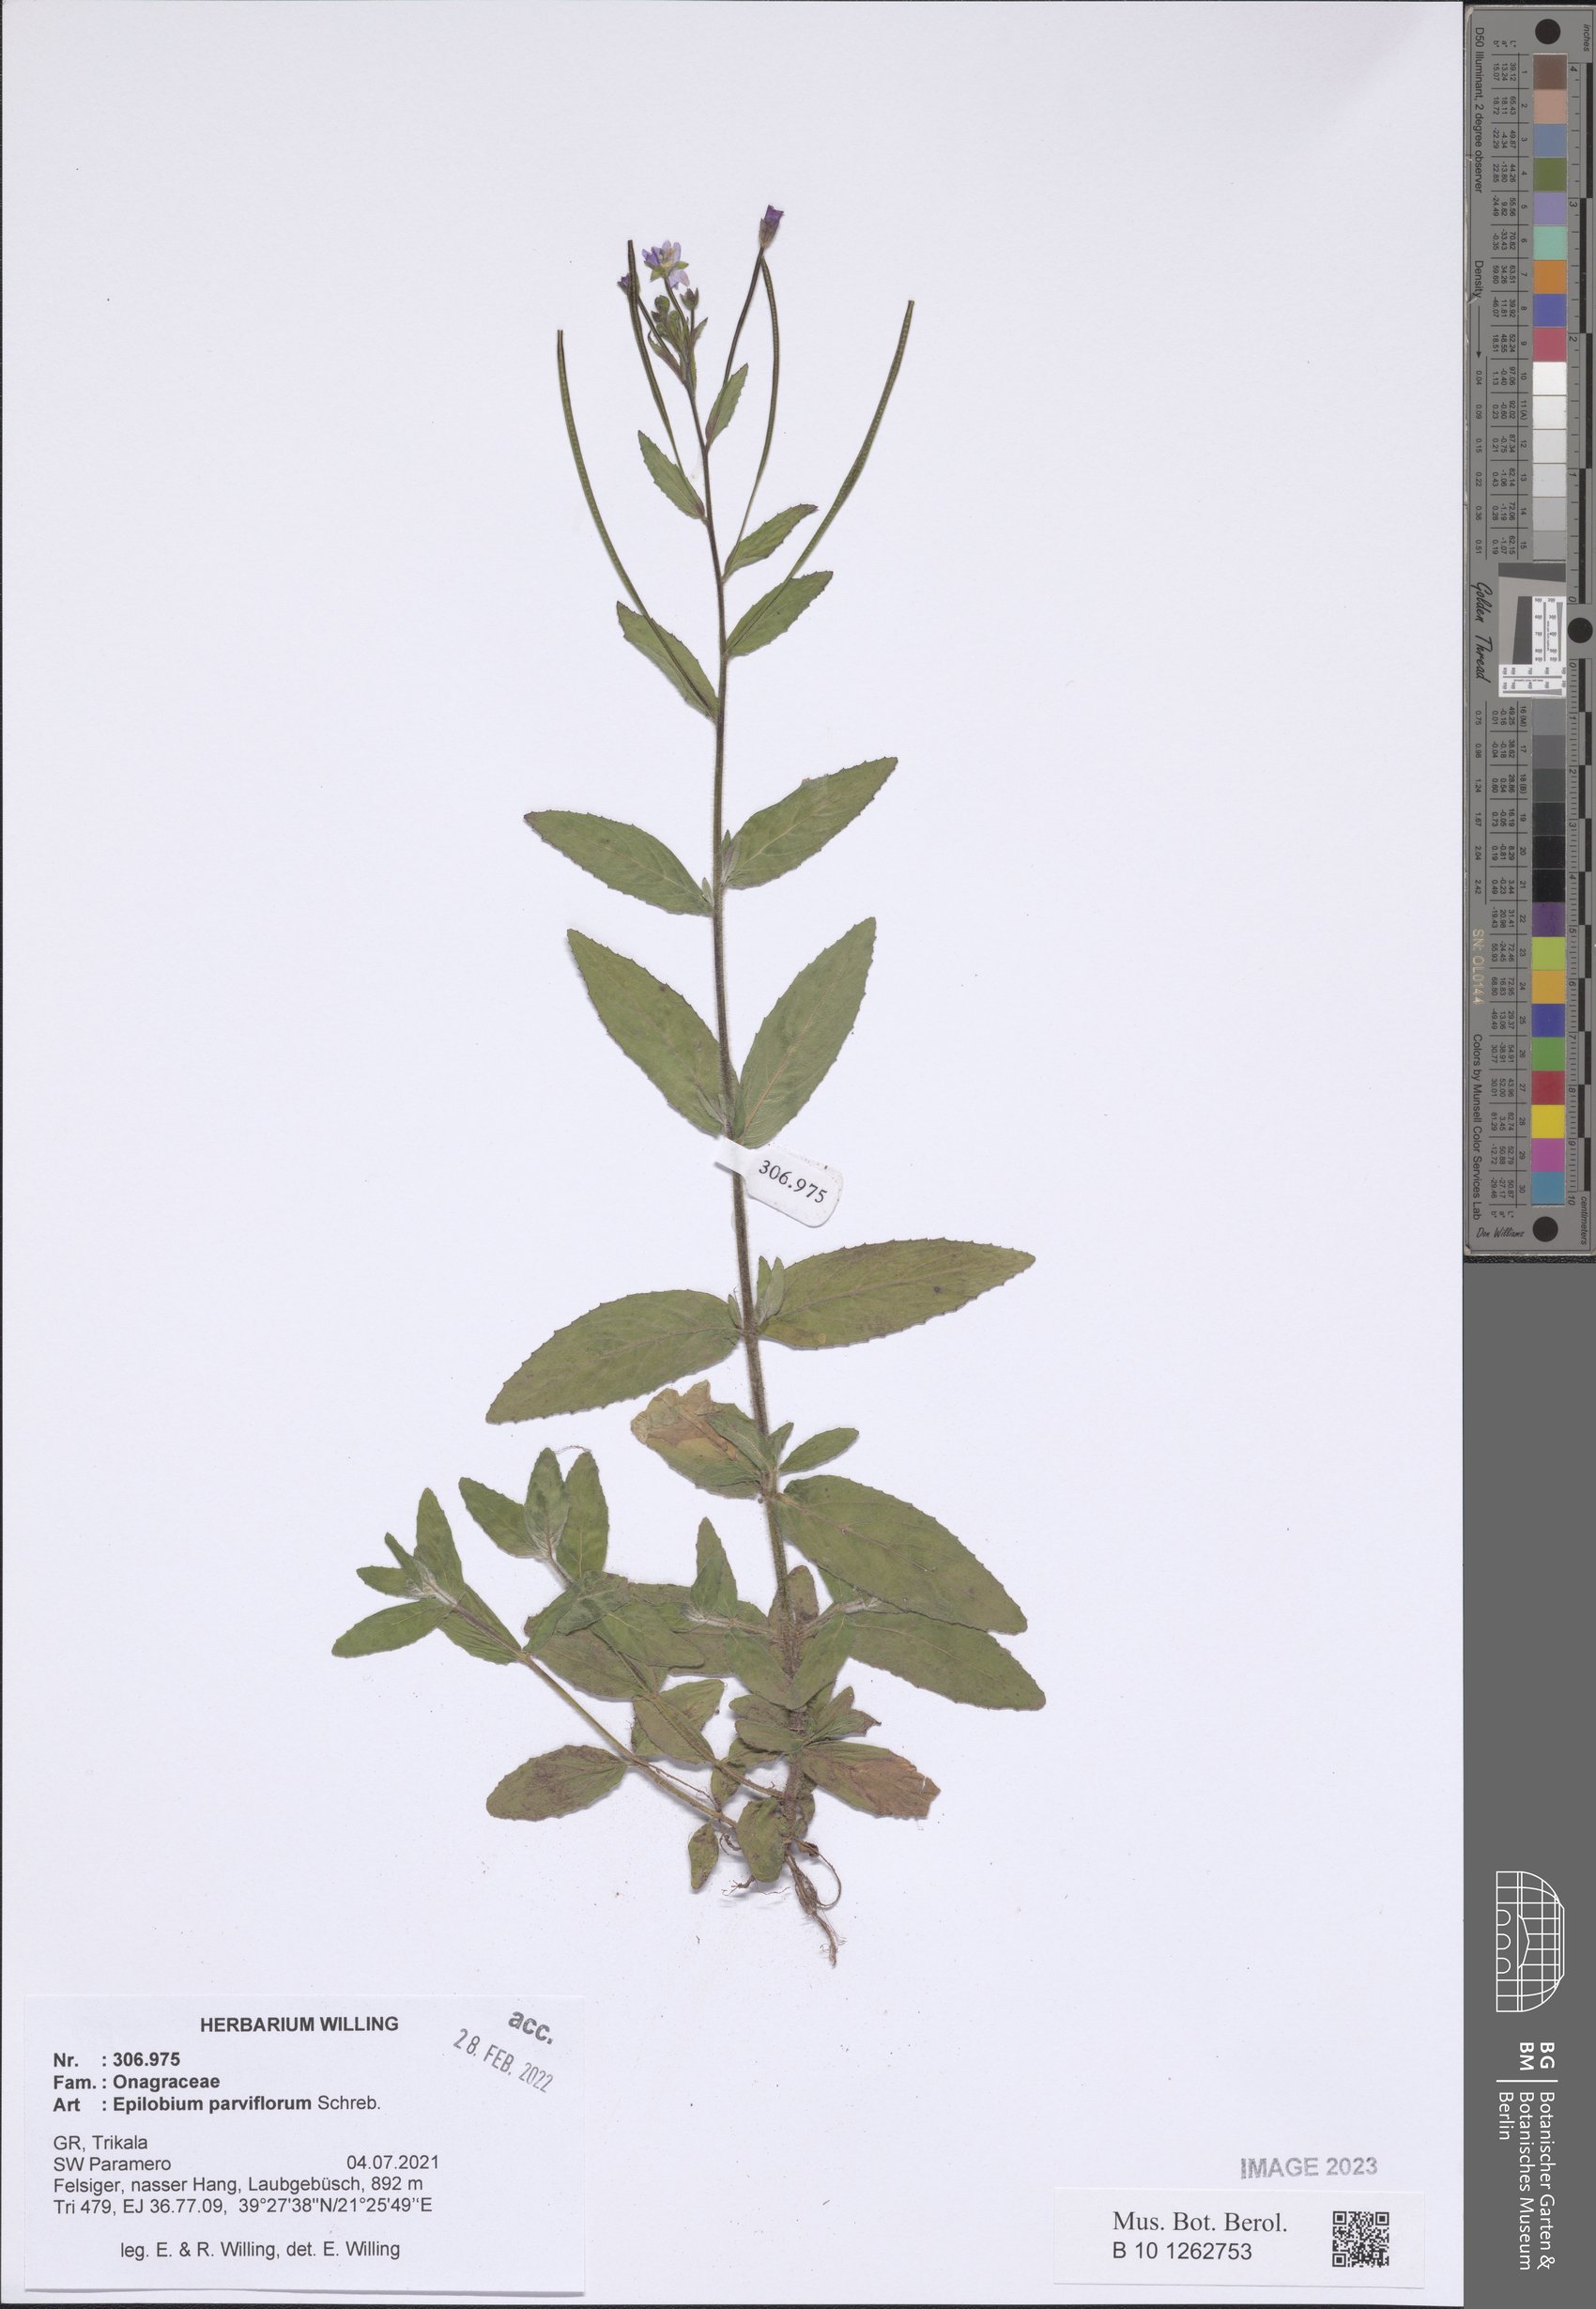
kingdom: Plantae
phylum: Tracheophyta
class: Magnoliopsida
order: Myrtales
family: Onagraceae
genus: Epilobium
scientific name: Epilobium parviflorum
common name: Hoary willowherb
